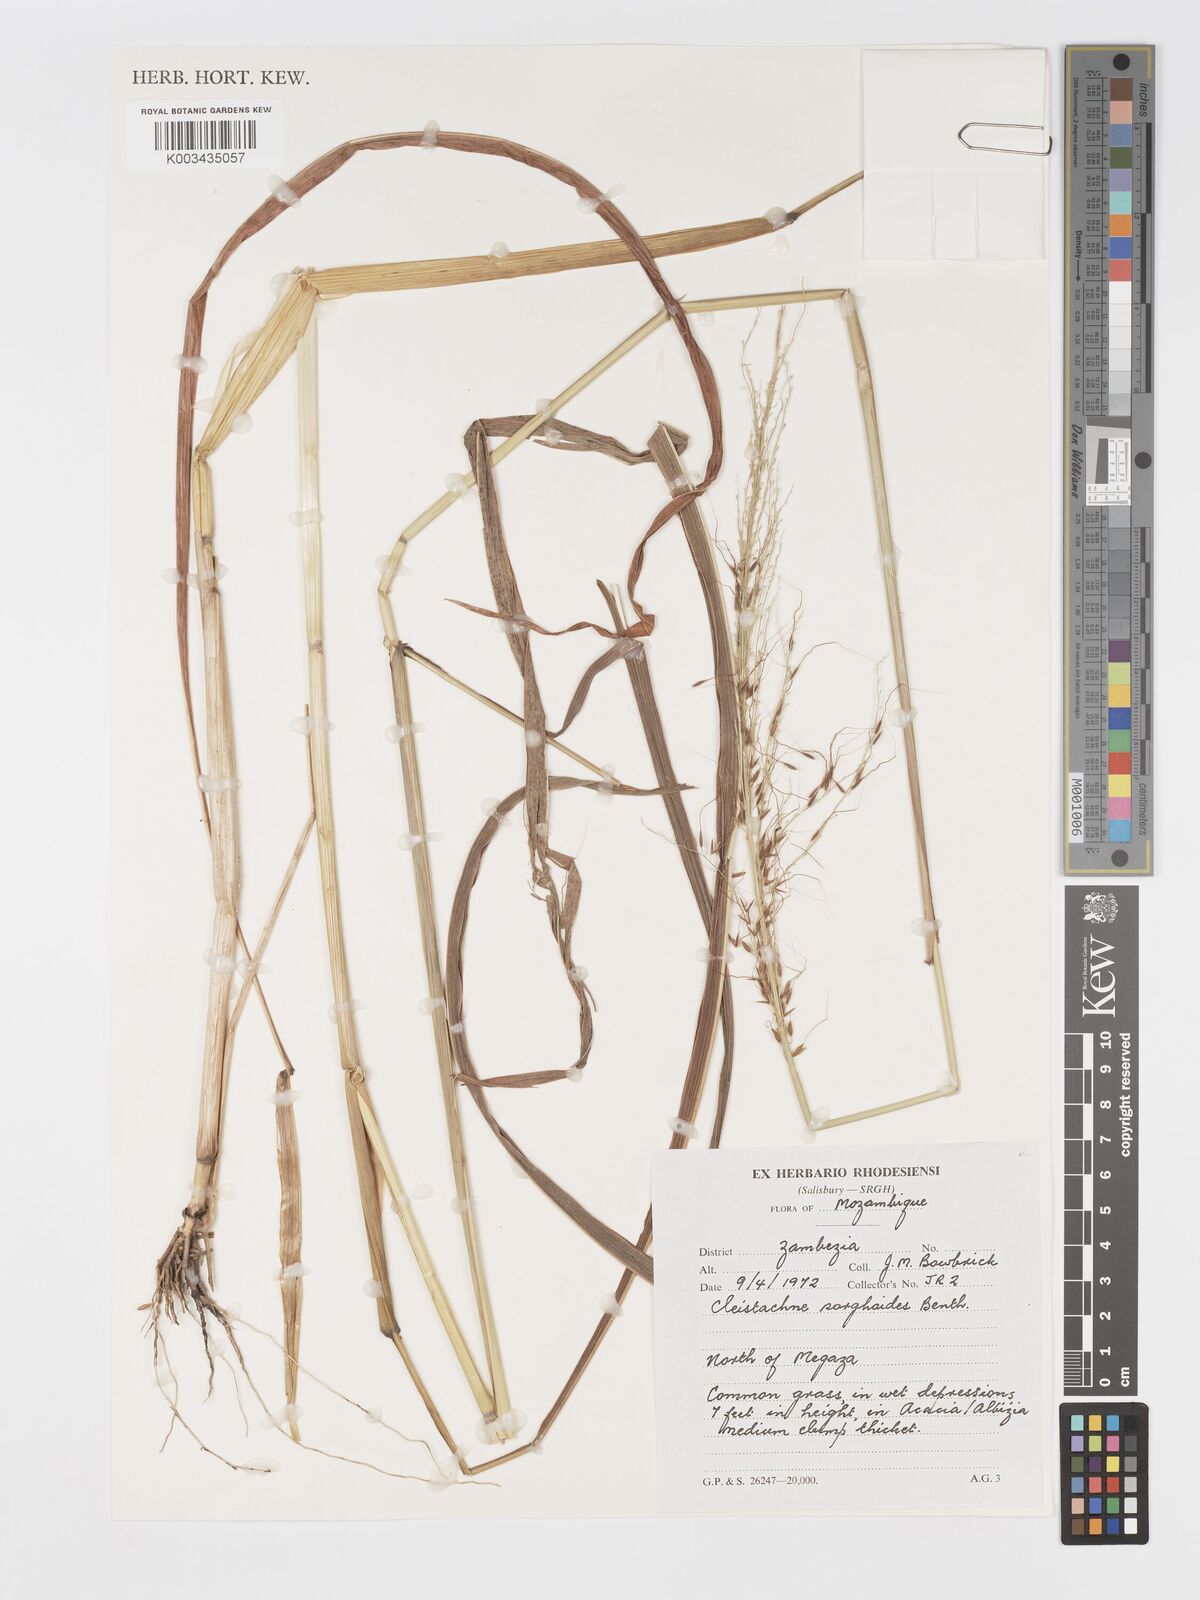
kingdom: Plantae
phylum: Tracheophyta
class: Liliopsida
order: Poales
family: Poaceae
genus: Cleistachne
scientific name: Cleistachne sorghoides
